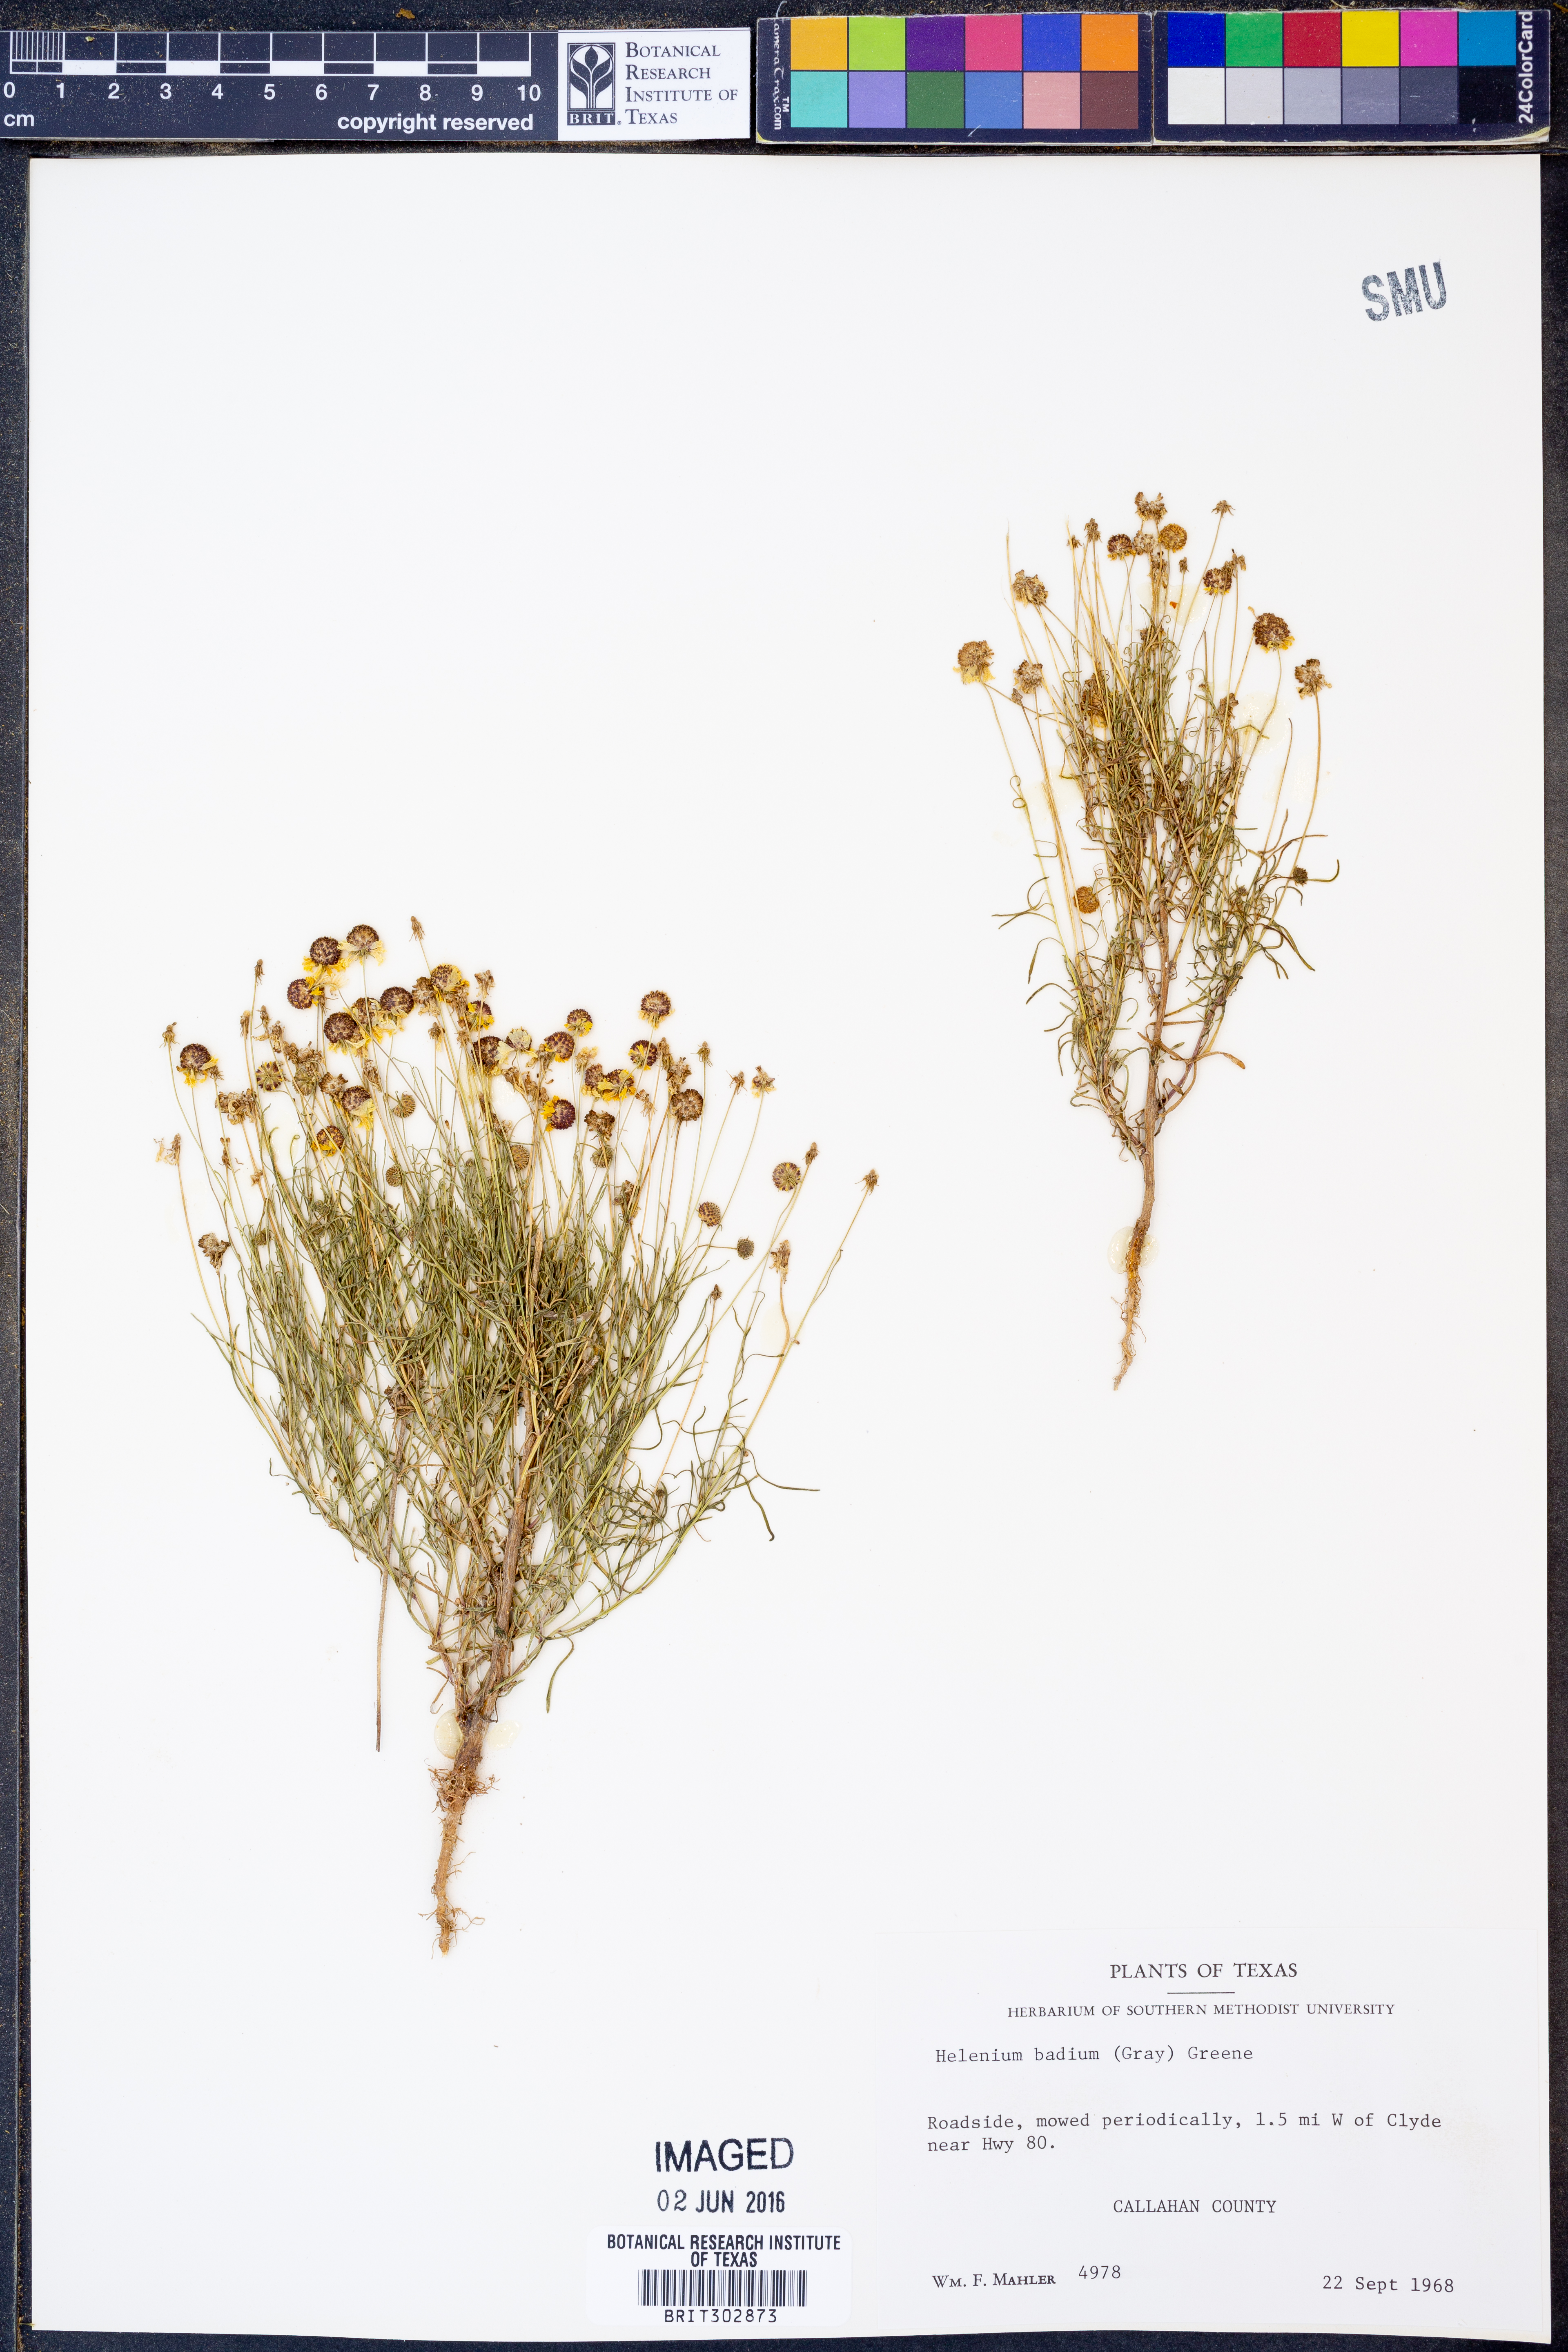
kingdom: Plantae
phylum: Tracheophyta
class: Magnoliopsida
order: Asterales
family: Asteraceae
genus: Helenium
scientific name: Helenium amarum
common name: Bitter sneezeweed
